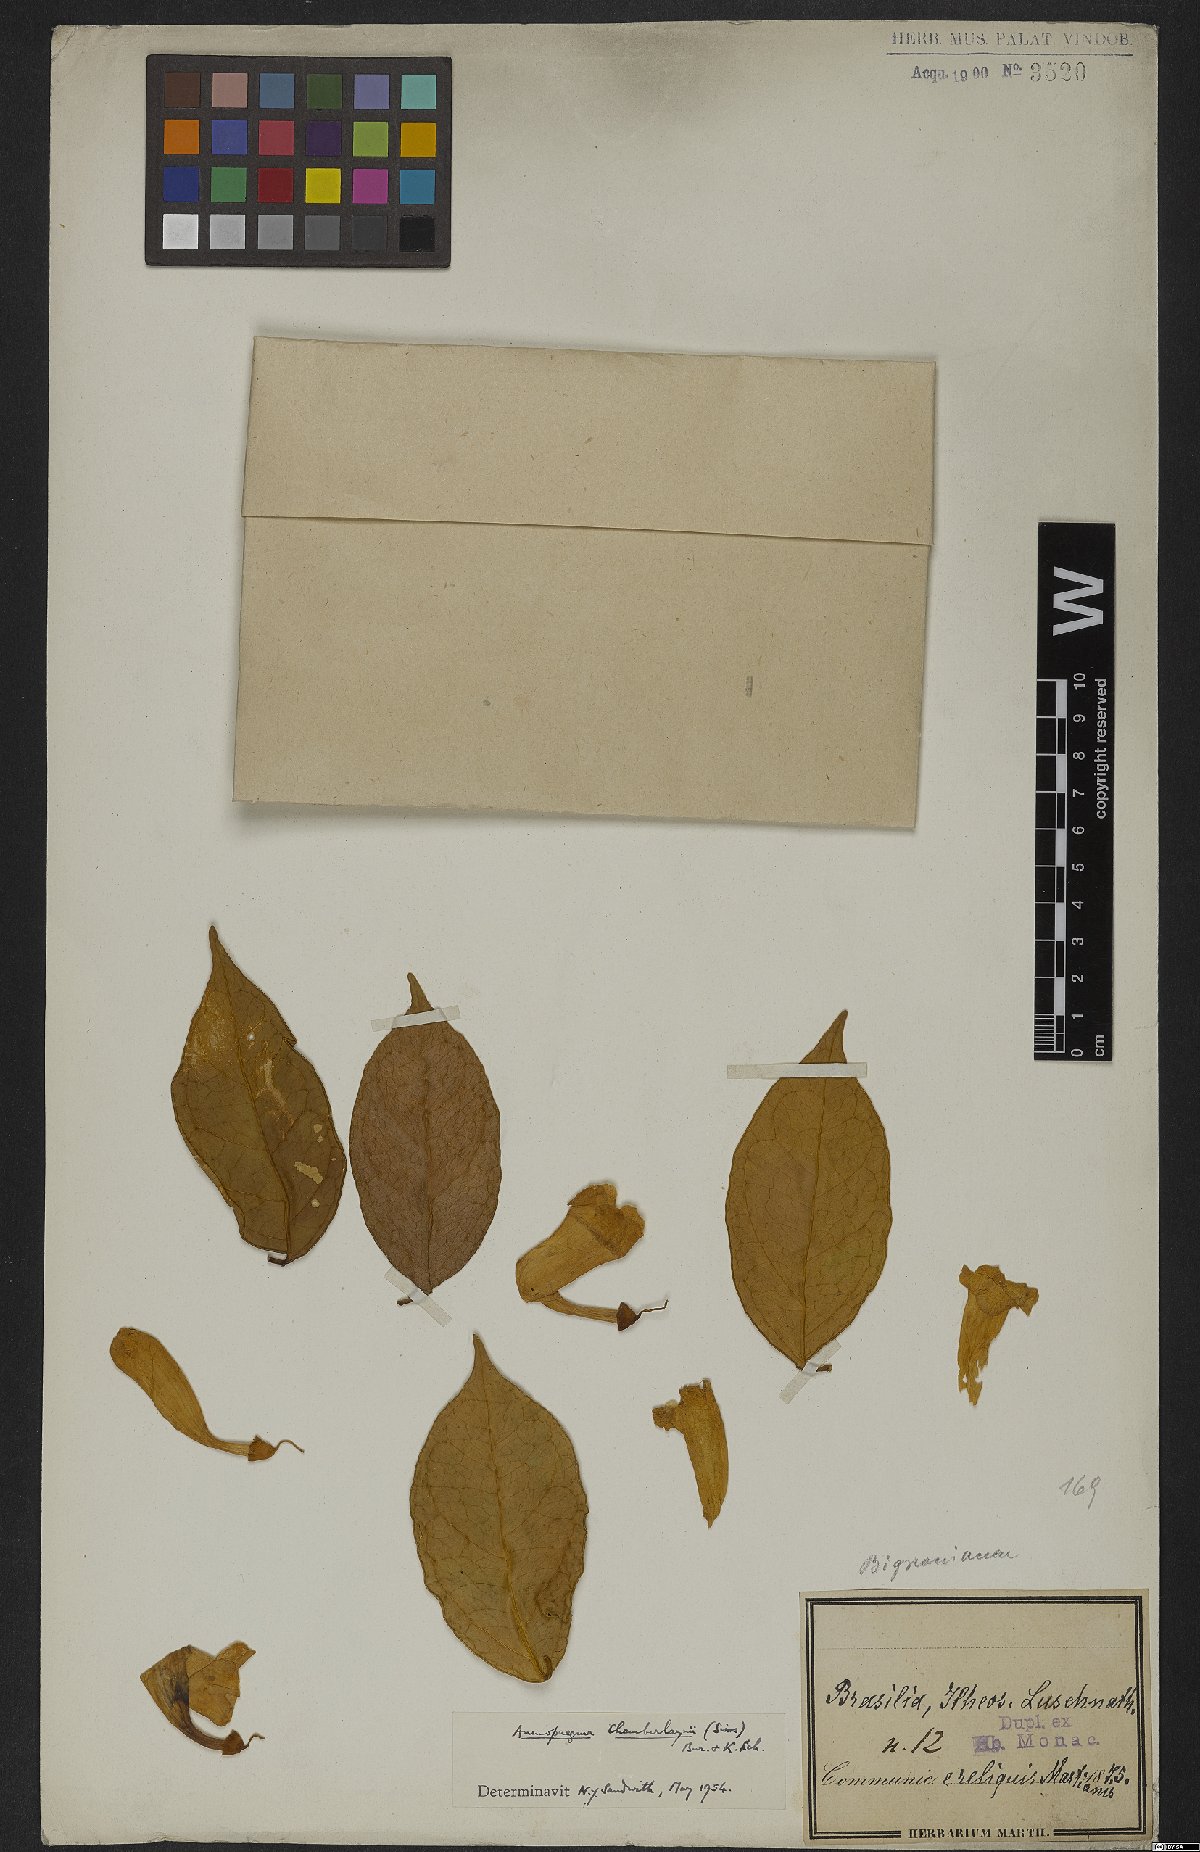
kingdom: Plantae
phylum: Tracheophyta
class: Magnoliopsida
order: Lamiales
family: Bignoniaceae
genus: Anemopaegma
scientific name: Anemopaegma chamberlaynii
